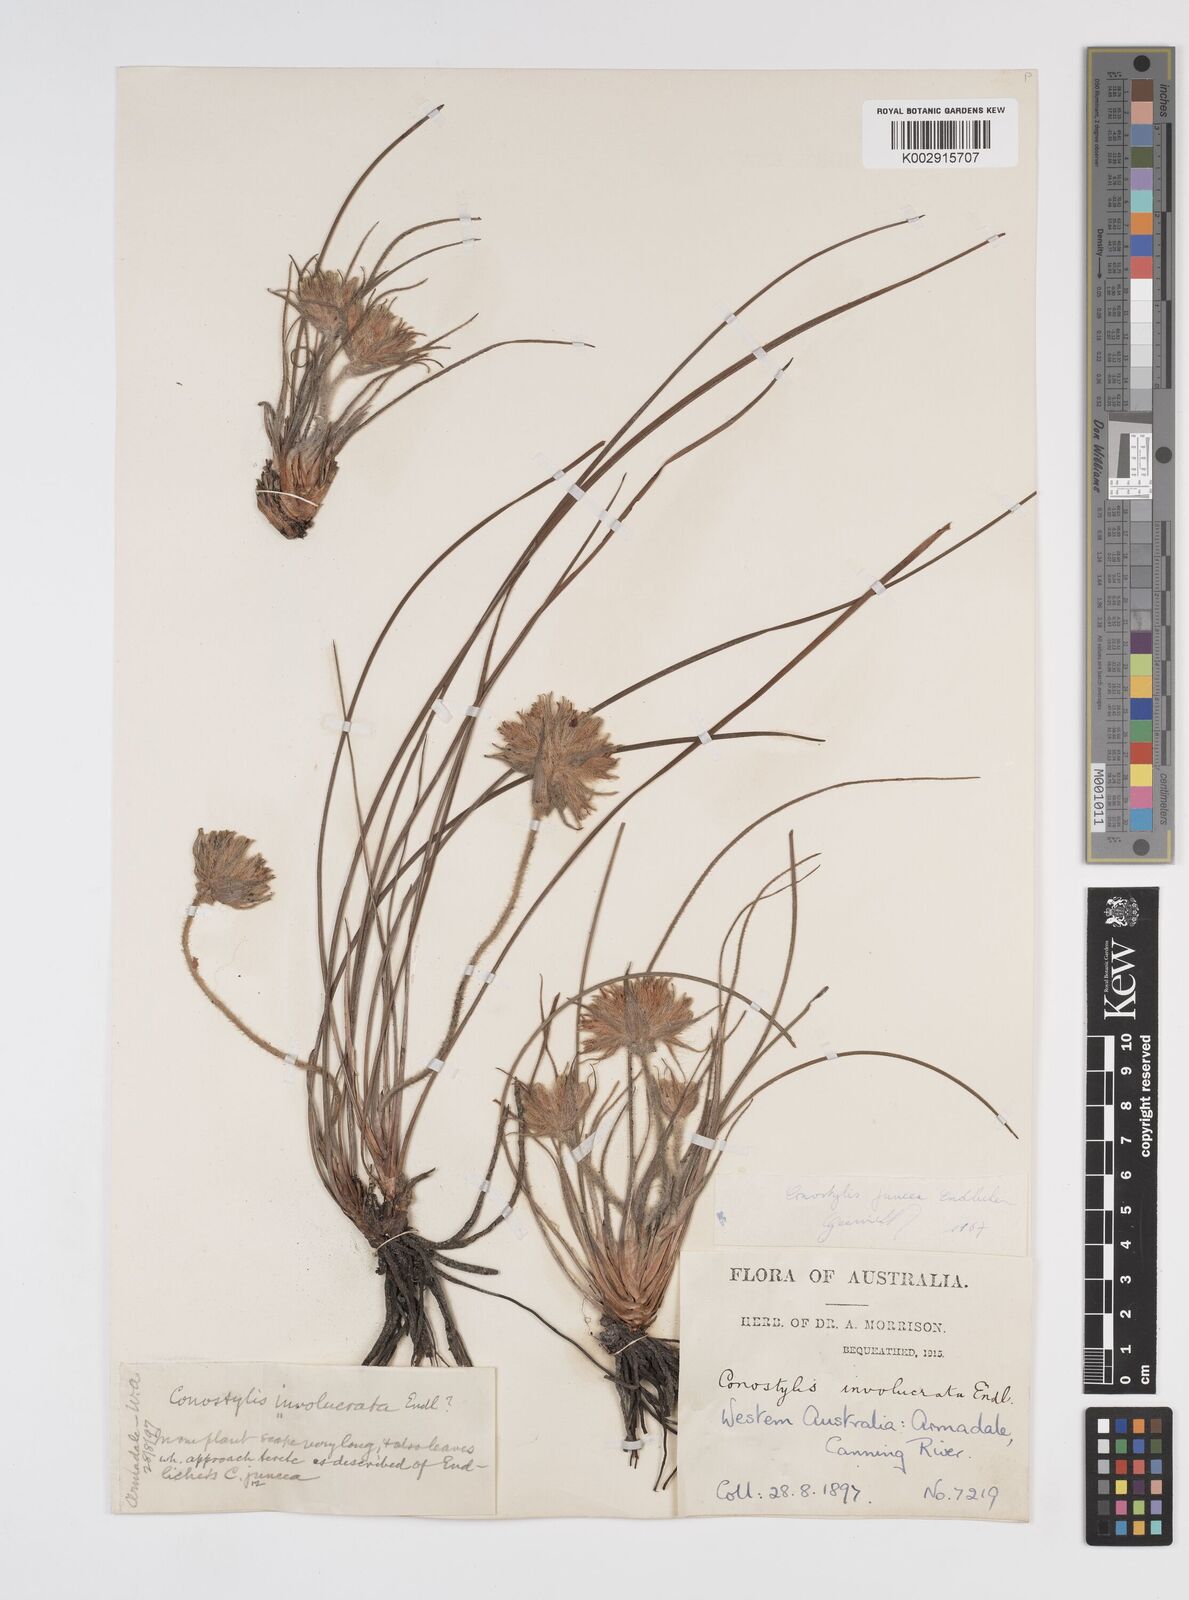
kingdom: Plantae
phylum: Tracheophyta
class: Liliopsida
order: Commelinales
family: Haemodoraceae
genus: Conostylis
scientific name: Conostylis juncea
